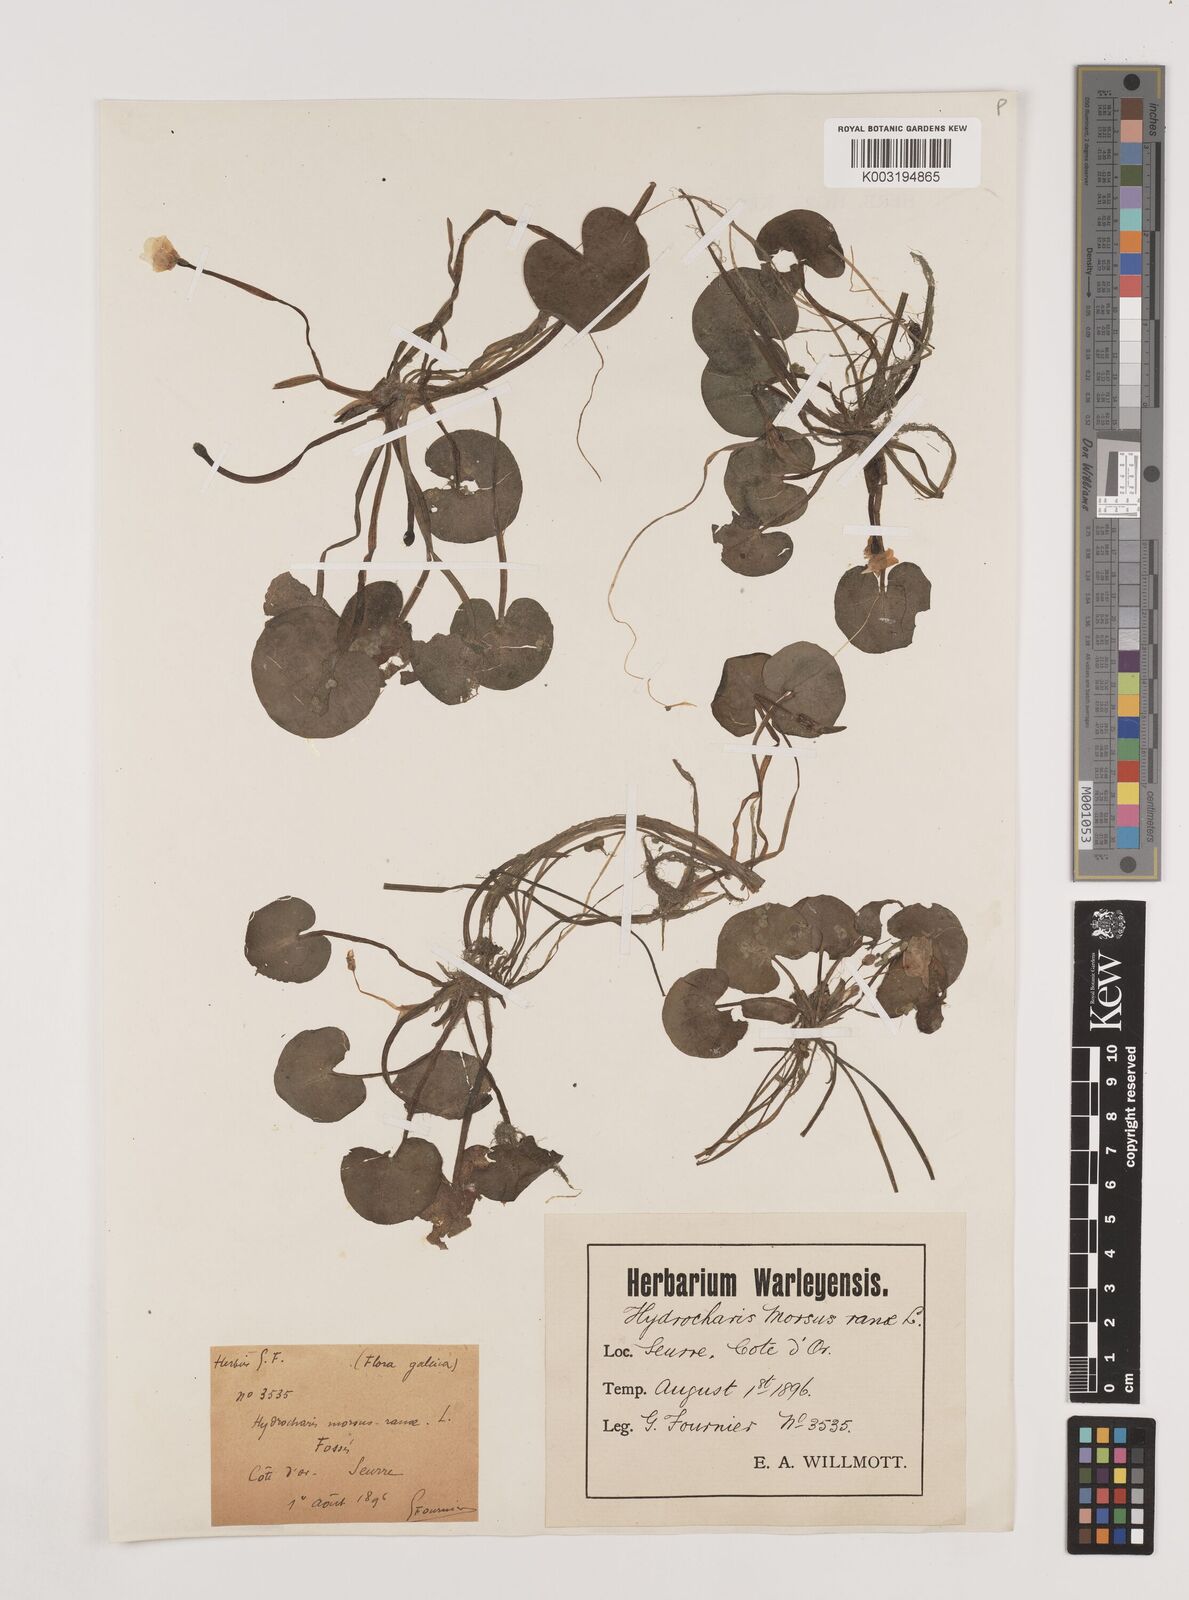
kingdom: Plantae
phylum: Tracheophyta
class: Liliopsida
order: Alismatales
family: Hydrocharitaceae
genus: Hydrocharis
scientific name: Hydrocharis morsus-ranae
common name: Frogbit
